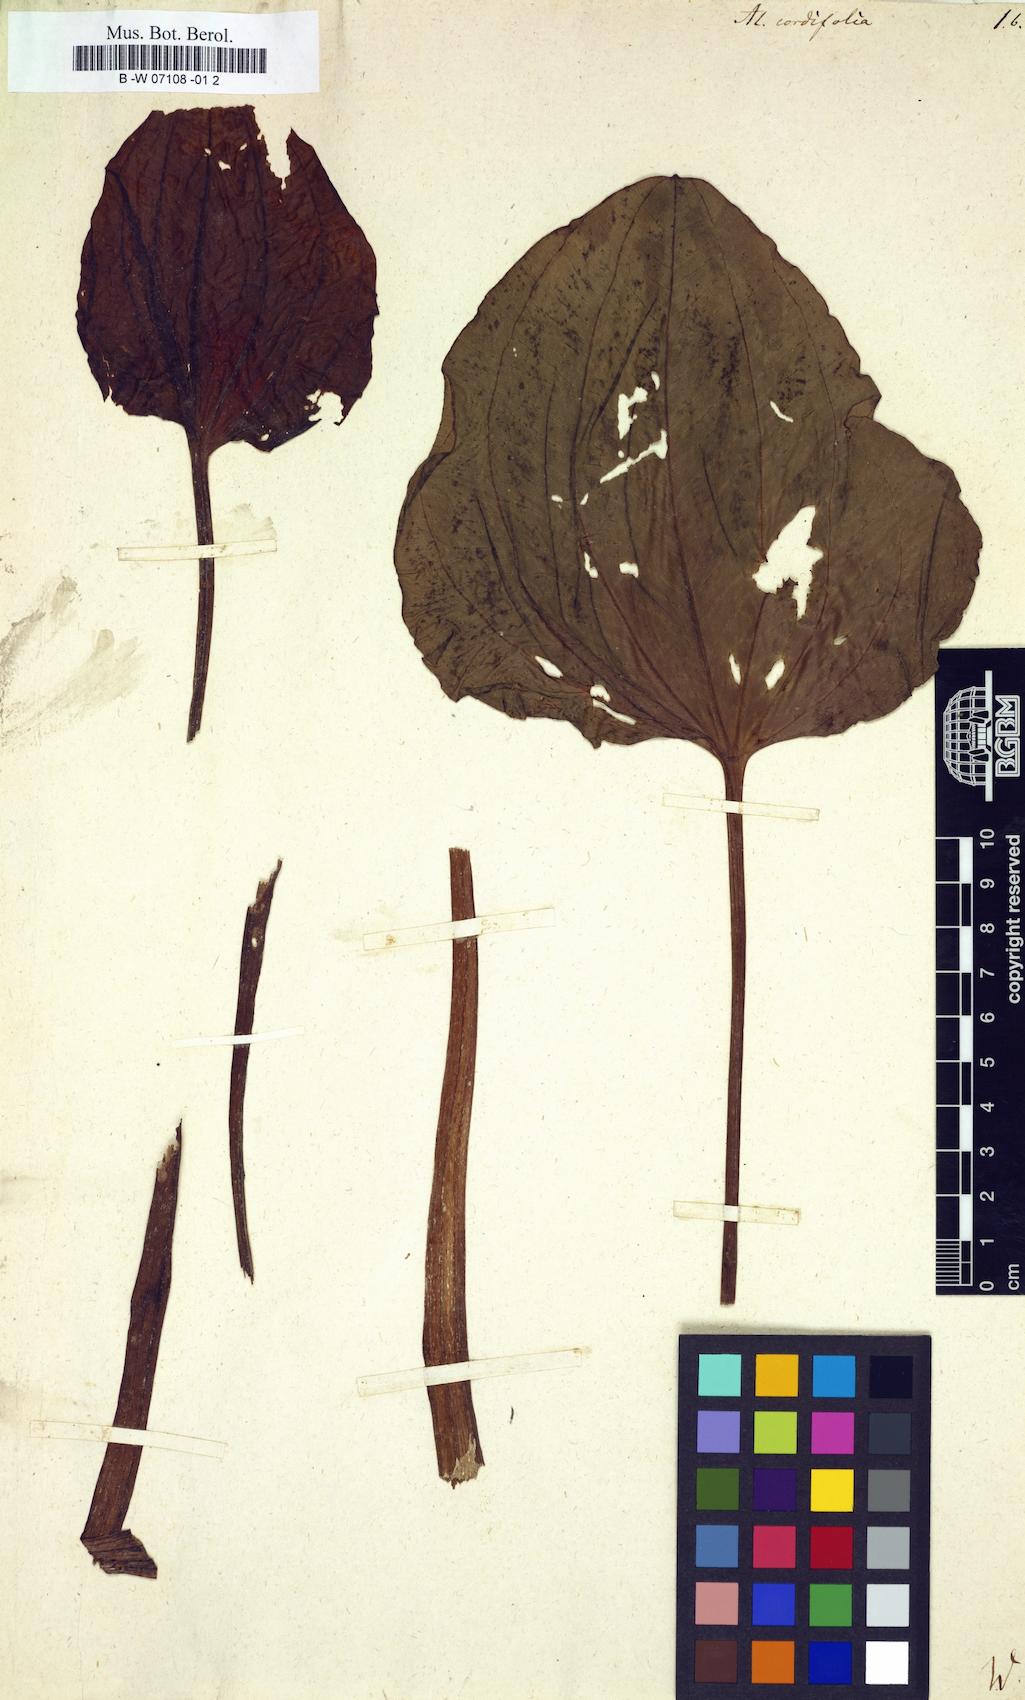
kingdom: Plantae
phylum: Tracheophyta
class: Liliopsida
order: Alismatales
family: Alismataceae
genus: Alisma
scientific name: Alisma cordifolium
